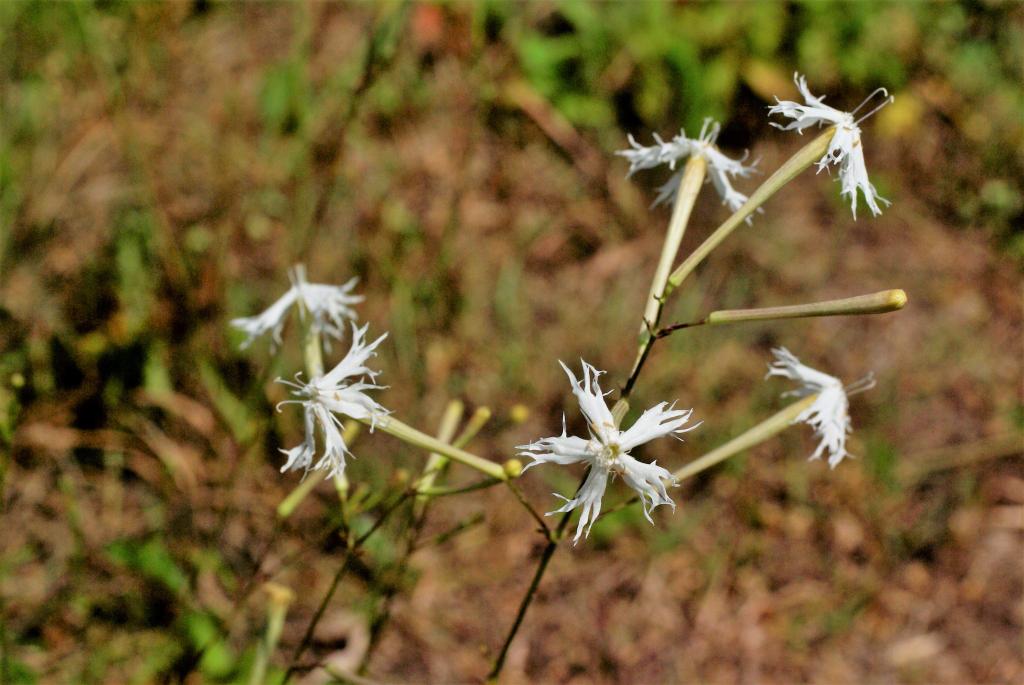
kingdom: Plantae
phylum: Tracheophyta
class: Magnoliopsida
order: Caryophyllales
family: Caryophyllaceae
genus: Silene
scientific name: Silene fortunei
